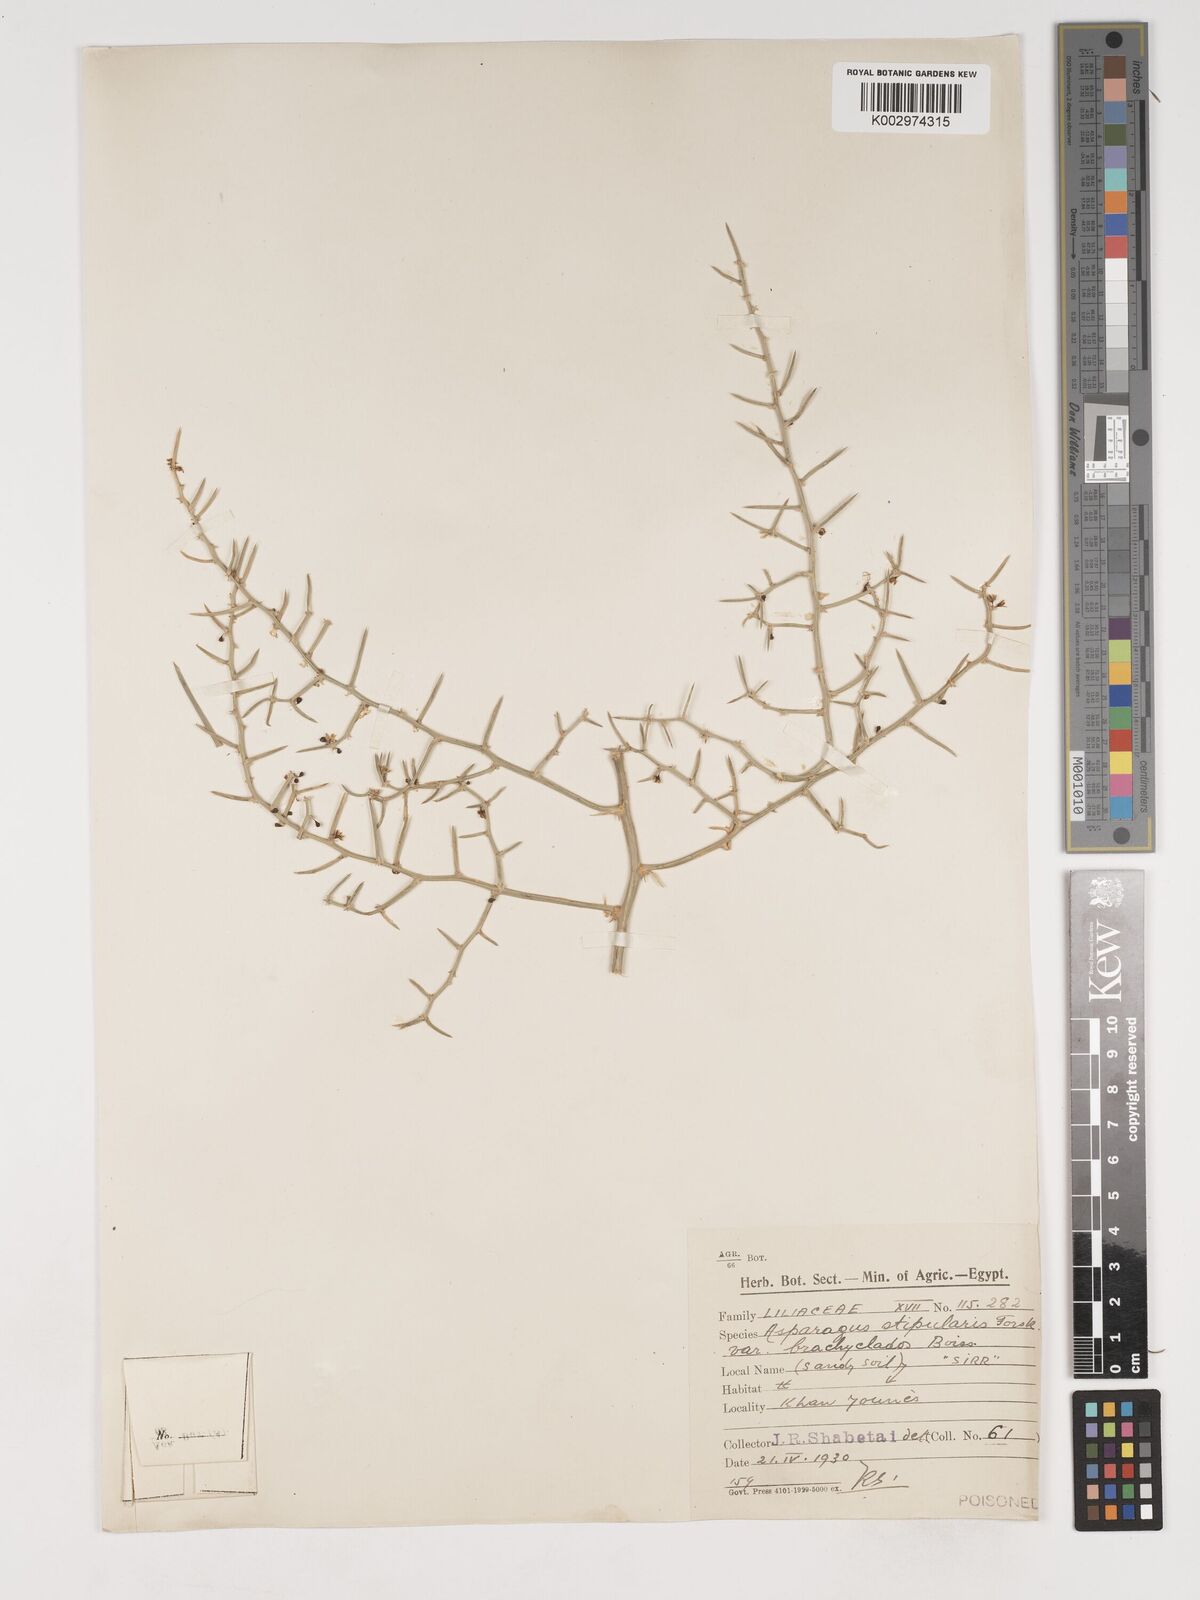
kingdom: Plantae
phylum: Tracheophyta
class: Liliopsida
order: Asparagales
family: Asparagaceae
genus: Asparagus
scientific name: Asparagus horridus
